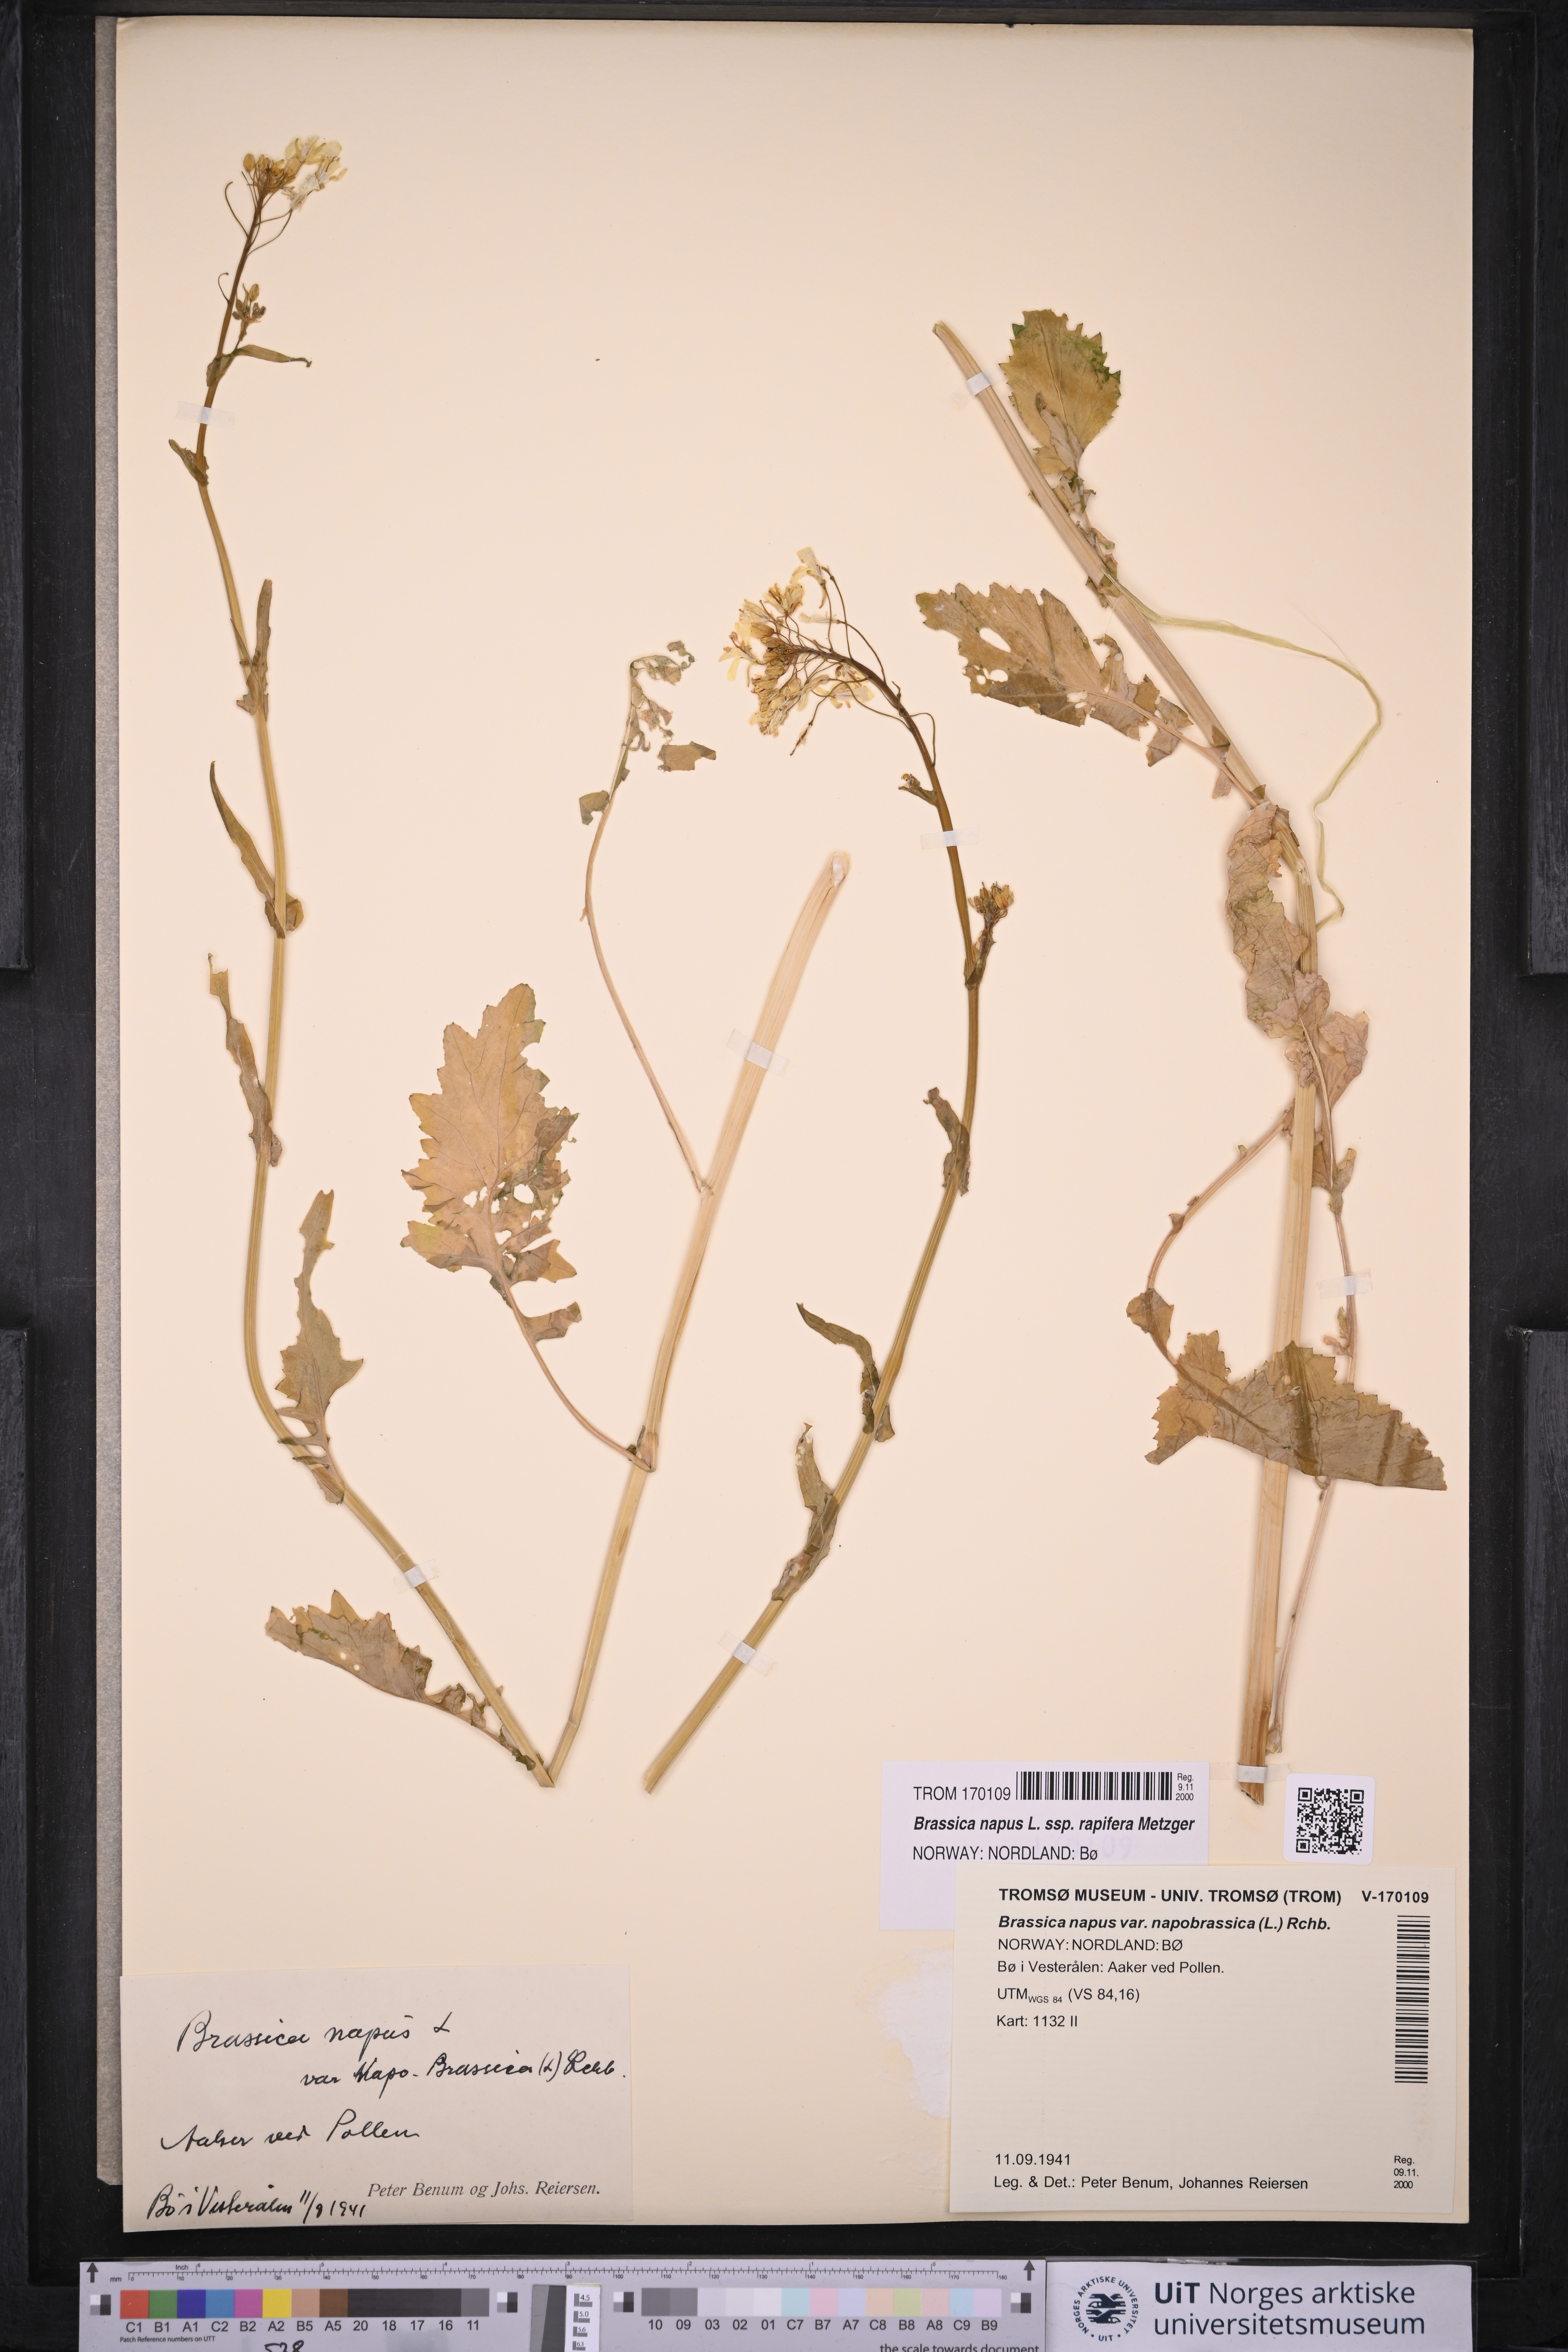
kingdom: Plantae
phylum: Tracheophyta
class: Magnoliopsida
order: Brassicales
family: Brassicaceae
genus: Brassica
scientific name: Brassica napus
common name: Rape
